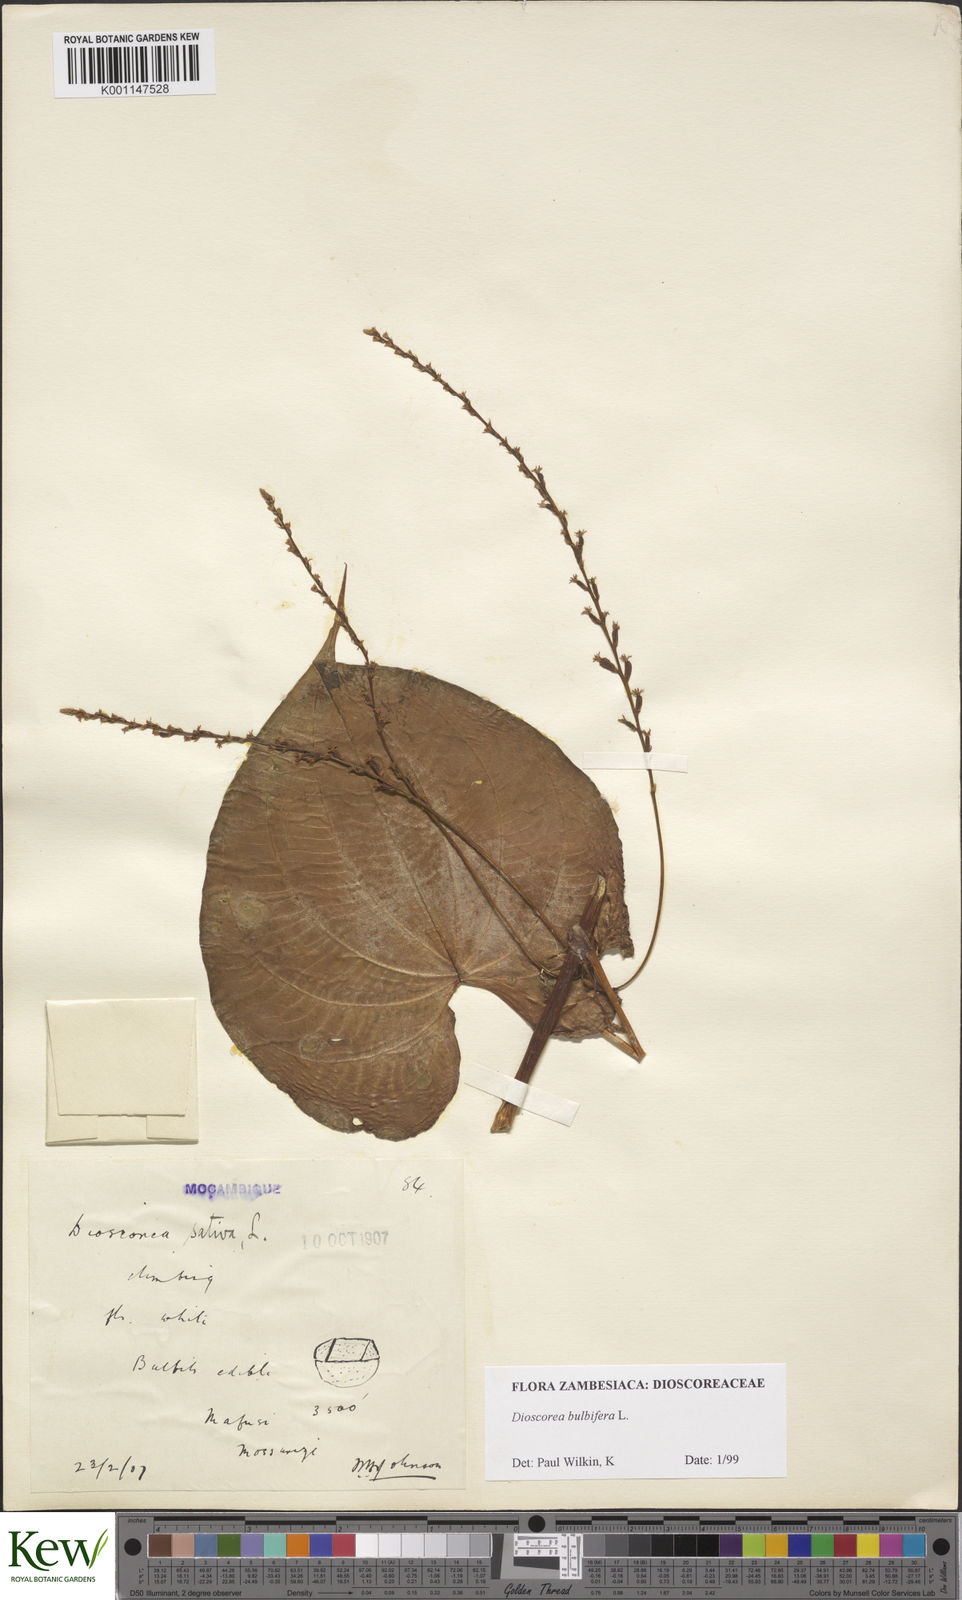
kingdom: Plantae
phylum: Tracheophyta
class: Liliopsida
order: Dioscoreales
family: Dioscoreaceae
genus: Dioscorea
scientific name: Dioscorea bulbifera
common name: Air yam
